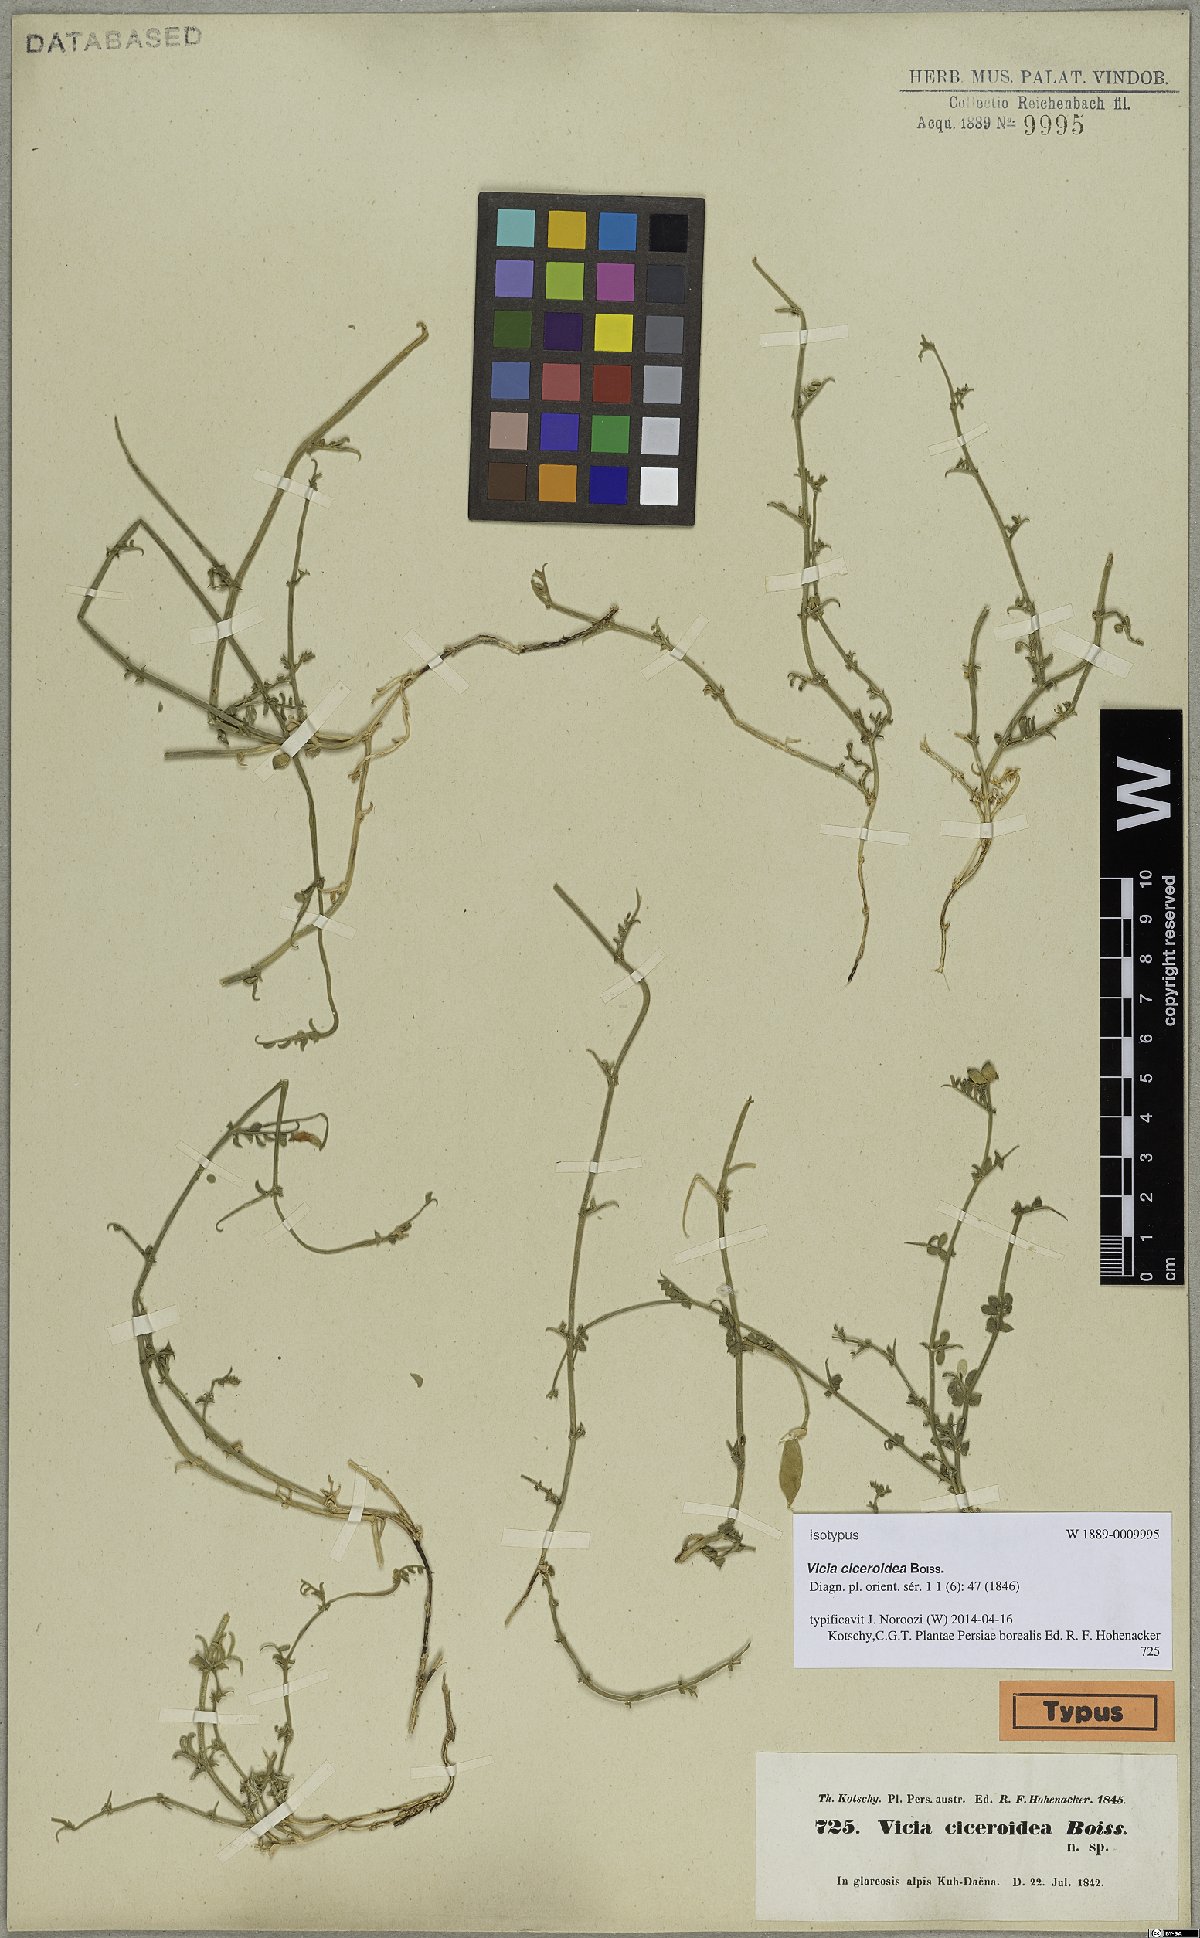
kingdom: Plantae
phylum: Tracheophyta
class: Magnoliopsida
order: Fabales
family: Fabaceae
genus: Vicia
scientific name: Vicia ciceroidea
